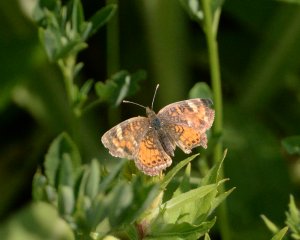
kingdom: Animalia
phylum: Arthropoda
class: Insecta
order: Lepidoptera
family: Nymphalidae
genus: Phyciodes
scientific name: Phyciodes tharos
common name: Northern Crescent
